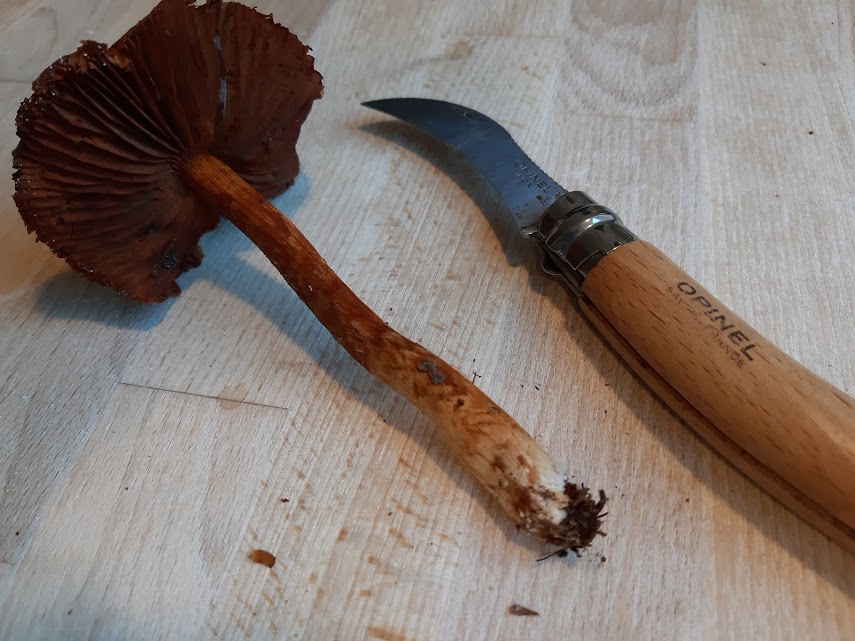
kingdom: Fungi
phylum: Basidiomycota
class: Agaricomycetes
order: Agaricales
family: Cortinariaceae
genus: Cortinarius
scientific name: Cortinarius sanguineus
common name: blodrød slørhat
